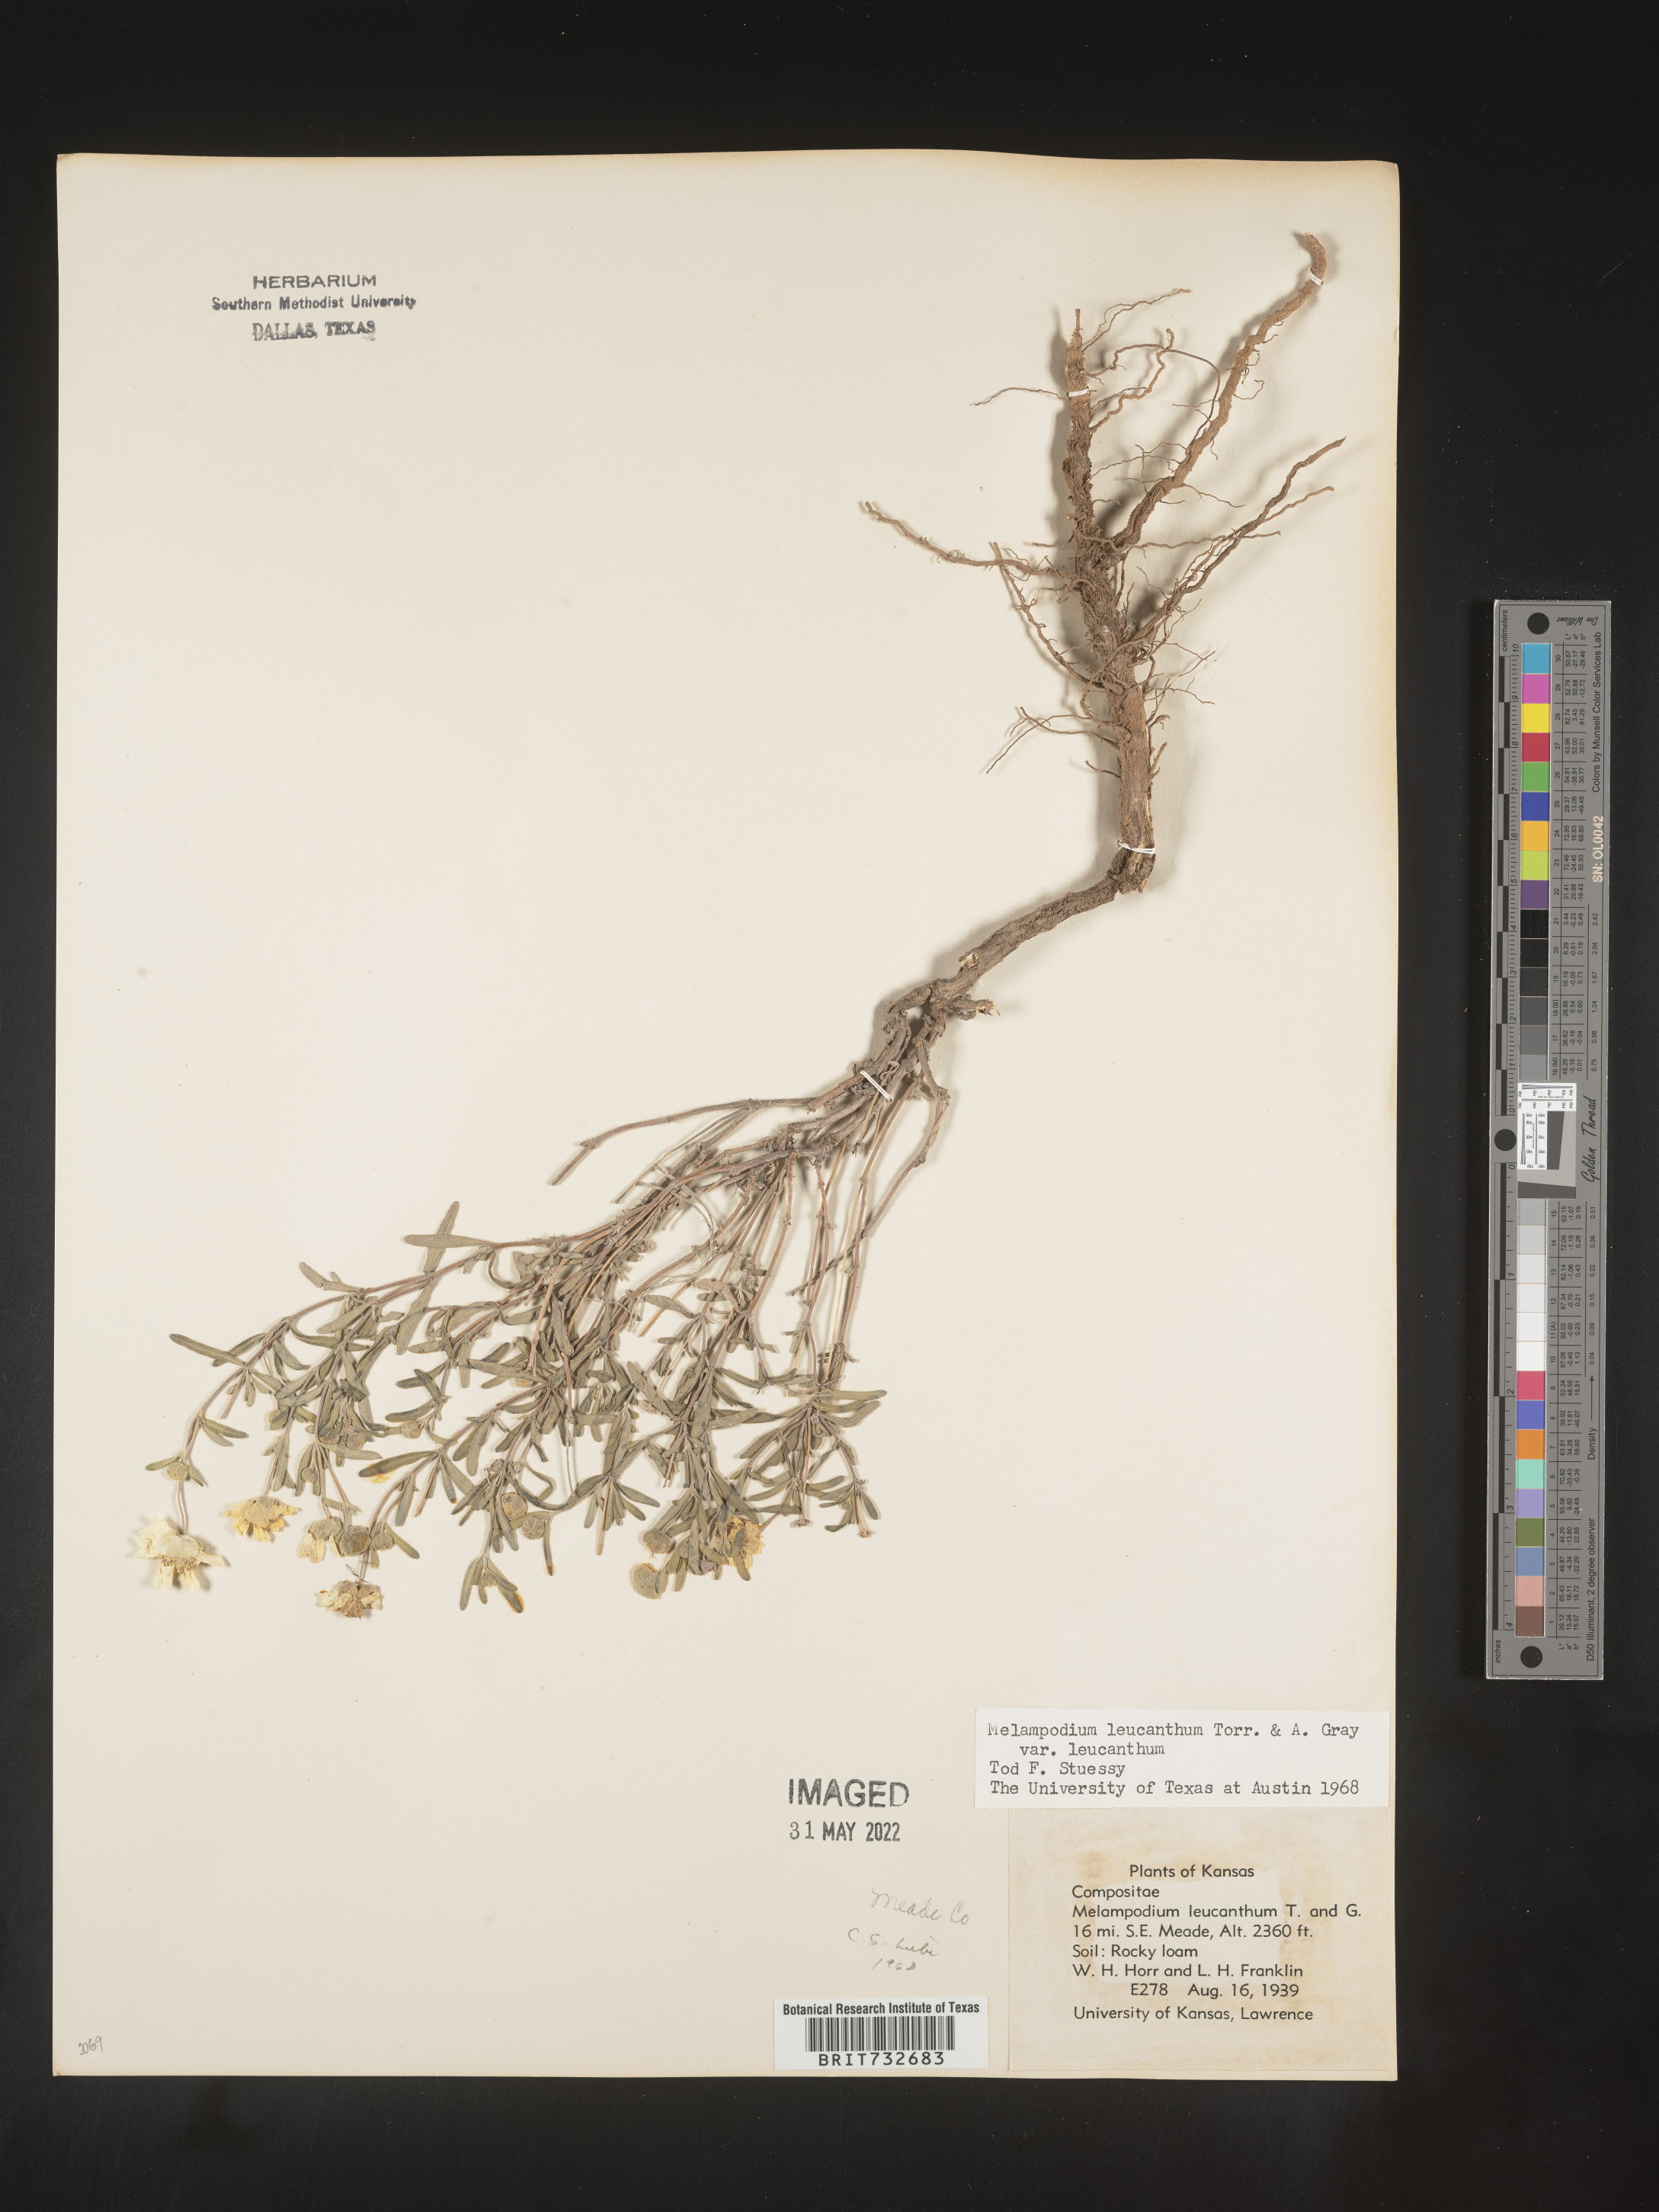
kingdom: Plantae
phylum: Tracheophyta
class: Magnoliopsida
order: Asterales
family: Asteraceae
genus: Melampodium
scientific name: Melampodium leucanthum
